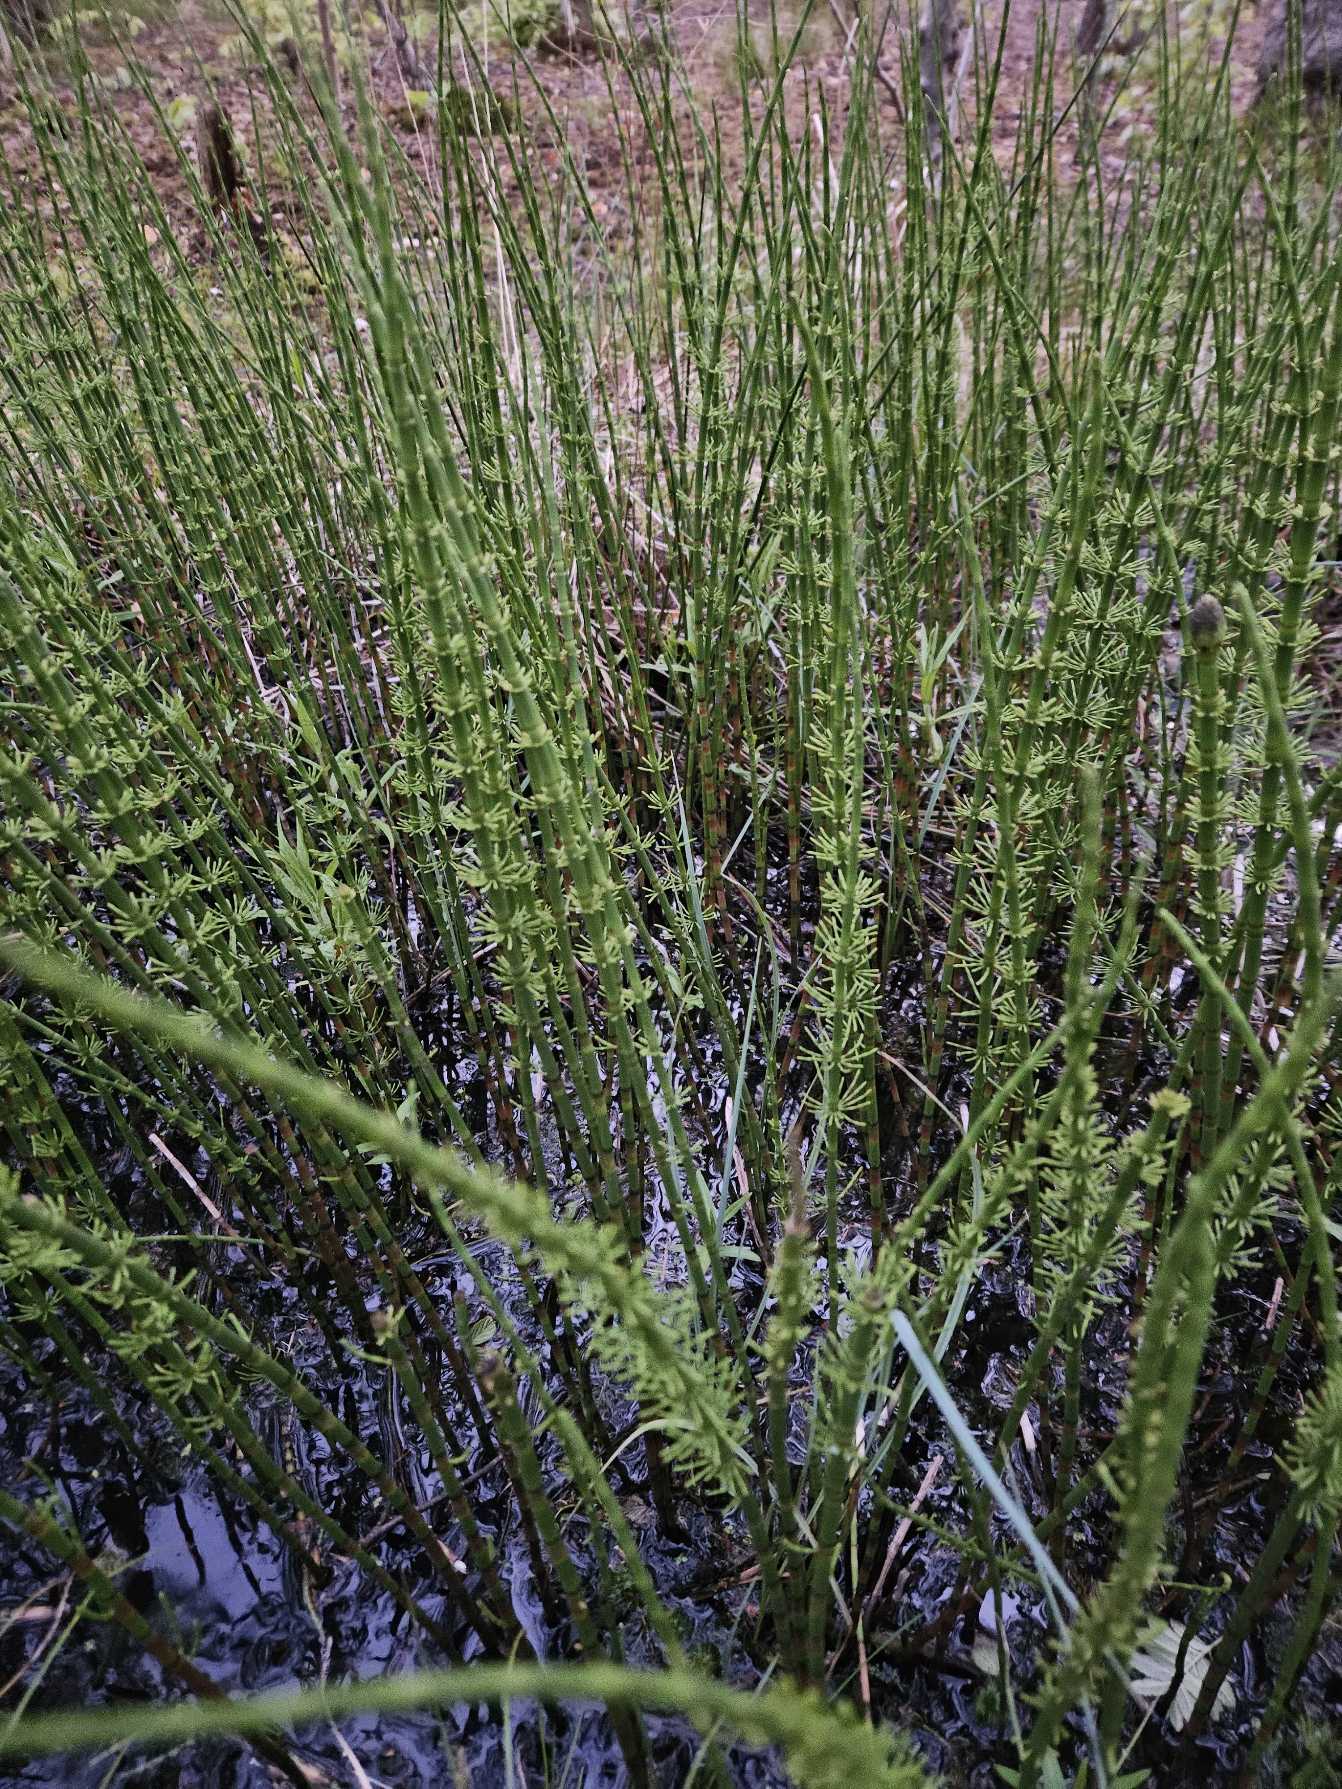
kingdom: Plantae
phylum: Tracheophyta
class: Polypodiopsida
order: Equisetales
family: Equisetaceae
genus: Equisetum
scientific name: Equisetum fluviatile
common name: Dynd-padderok
